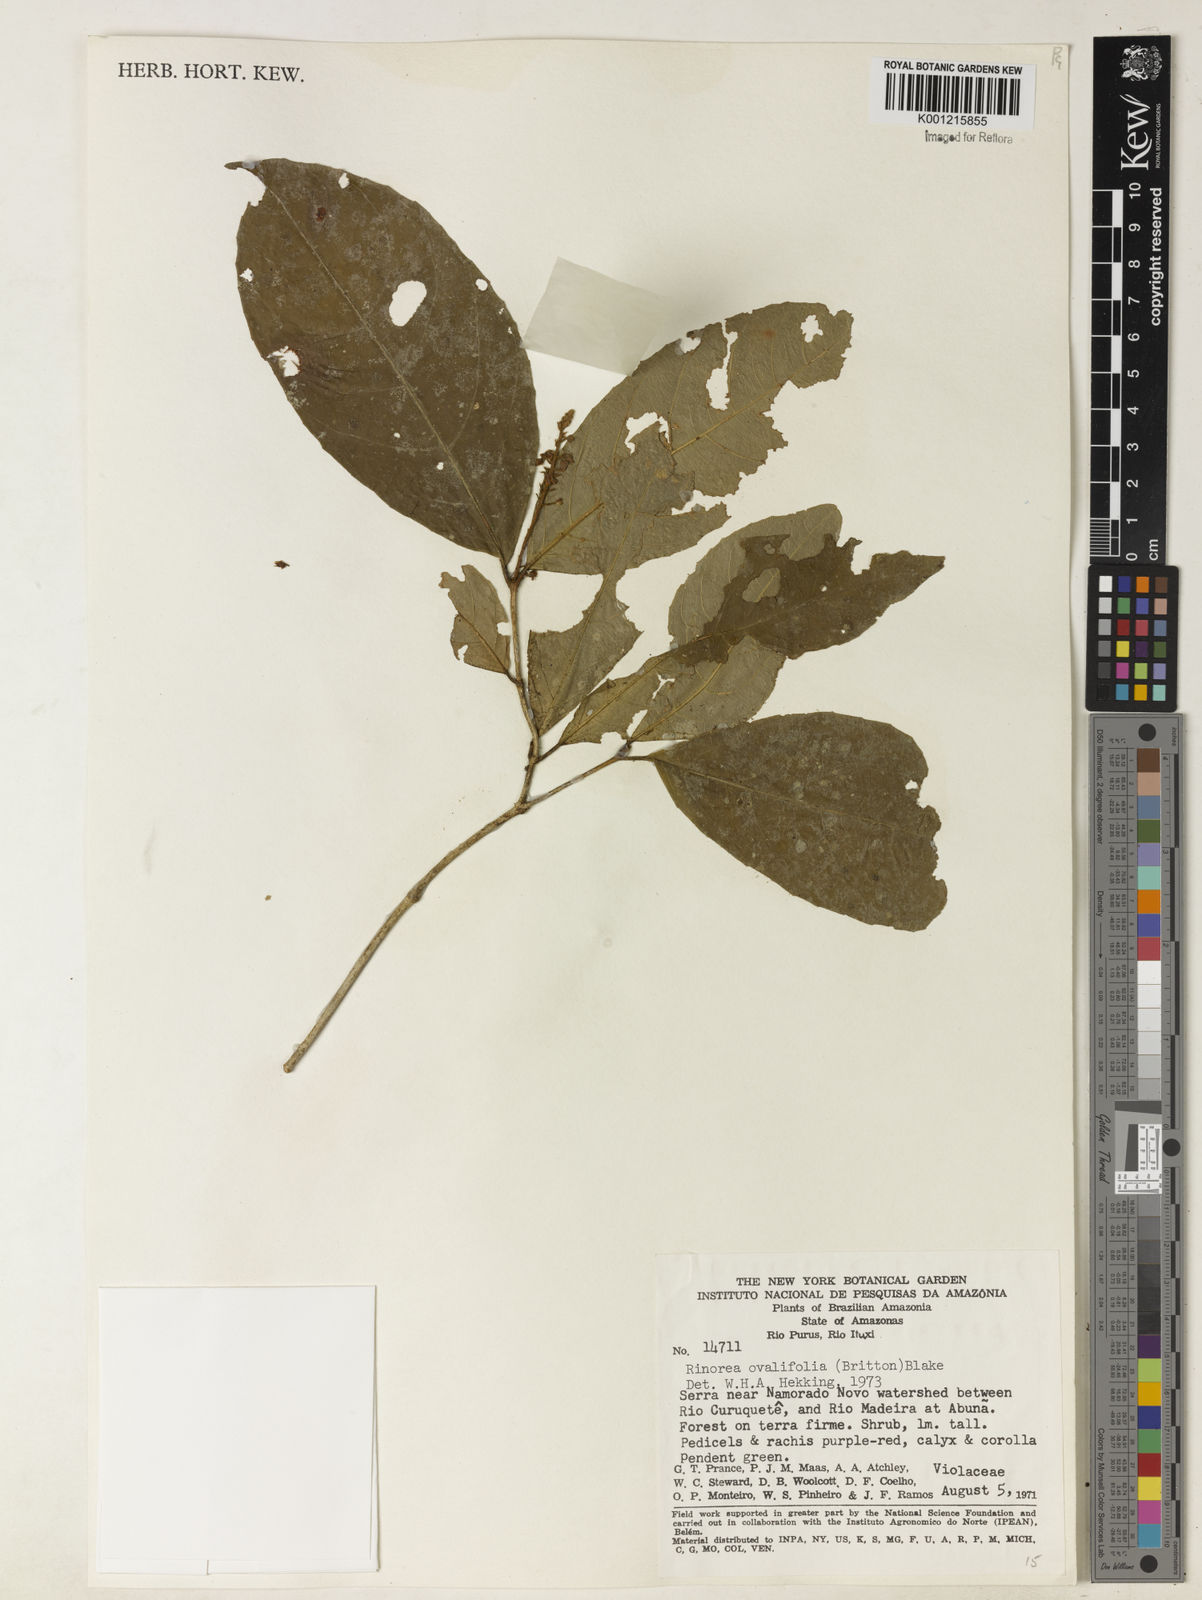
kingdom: Plantae
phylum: Tracheophyta
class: Magnoliopsida
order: Malpighiales
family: Violaceae
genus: Rinorea
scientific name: Rinorea ovalifolia
